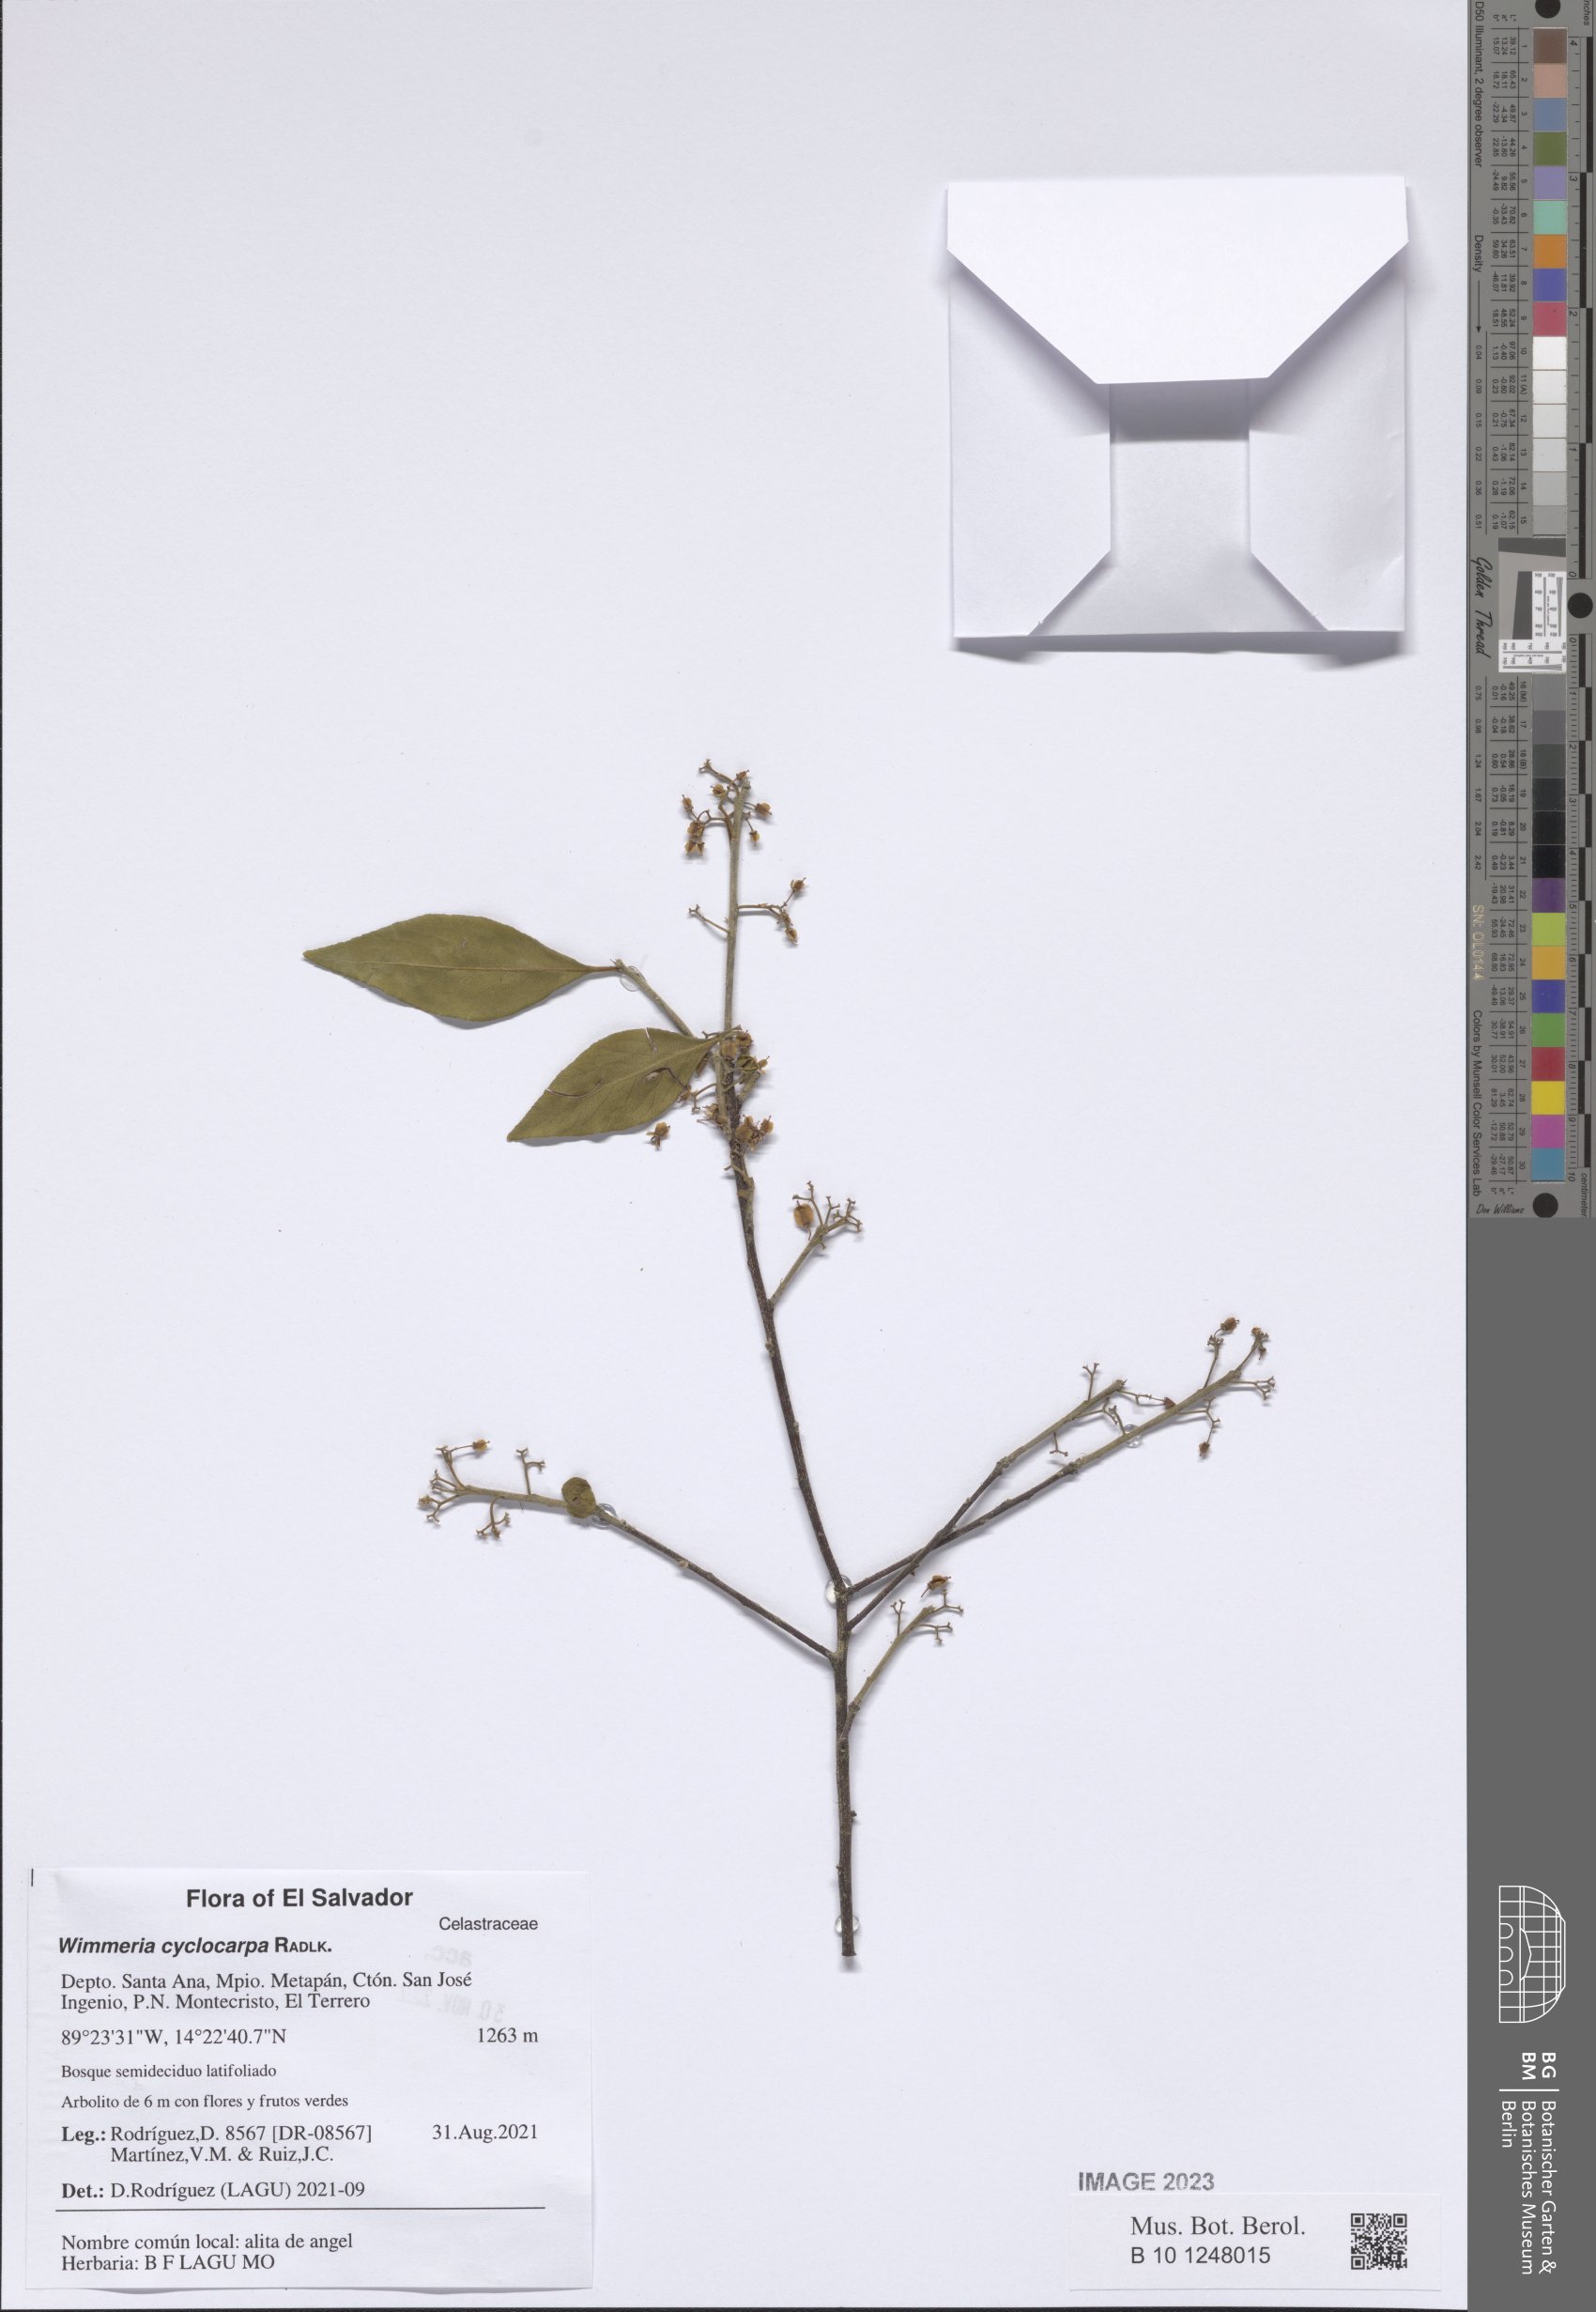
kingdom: Plantae
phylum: Tracheophyta
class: Magnoliopsida
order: Celastrales
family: Celastraceae
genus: Wimmeria
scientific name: Wimmeria cyclocarpa
